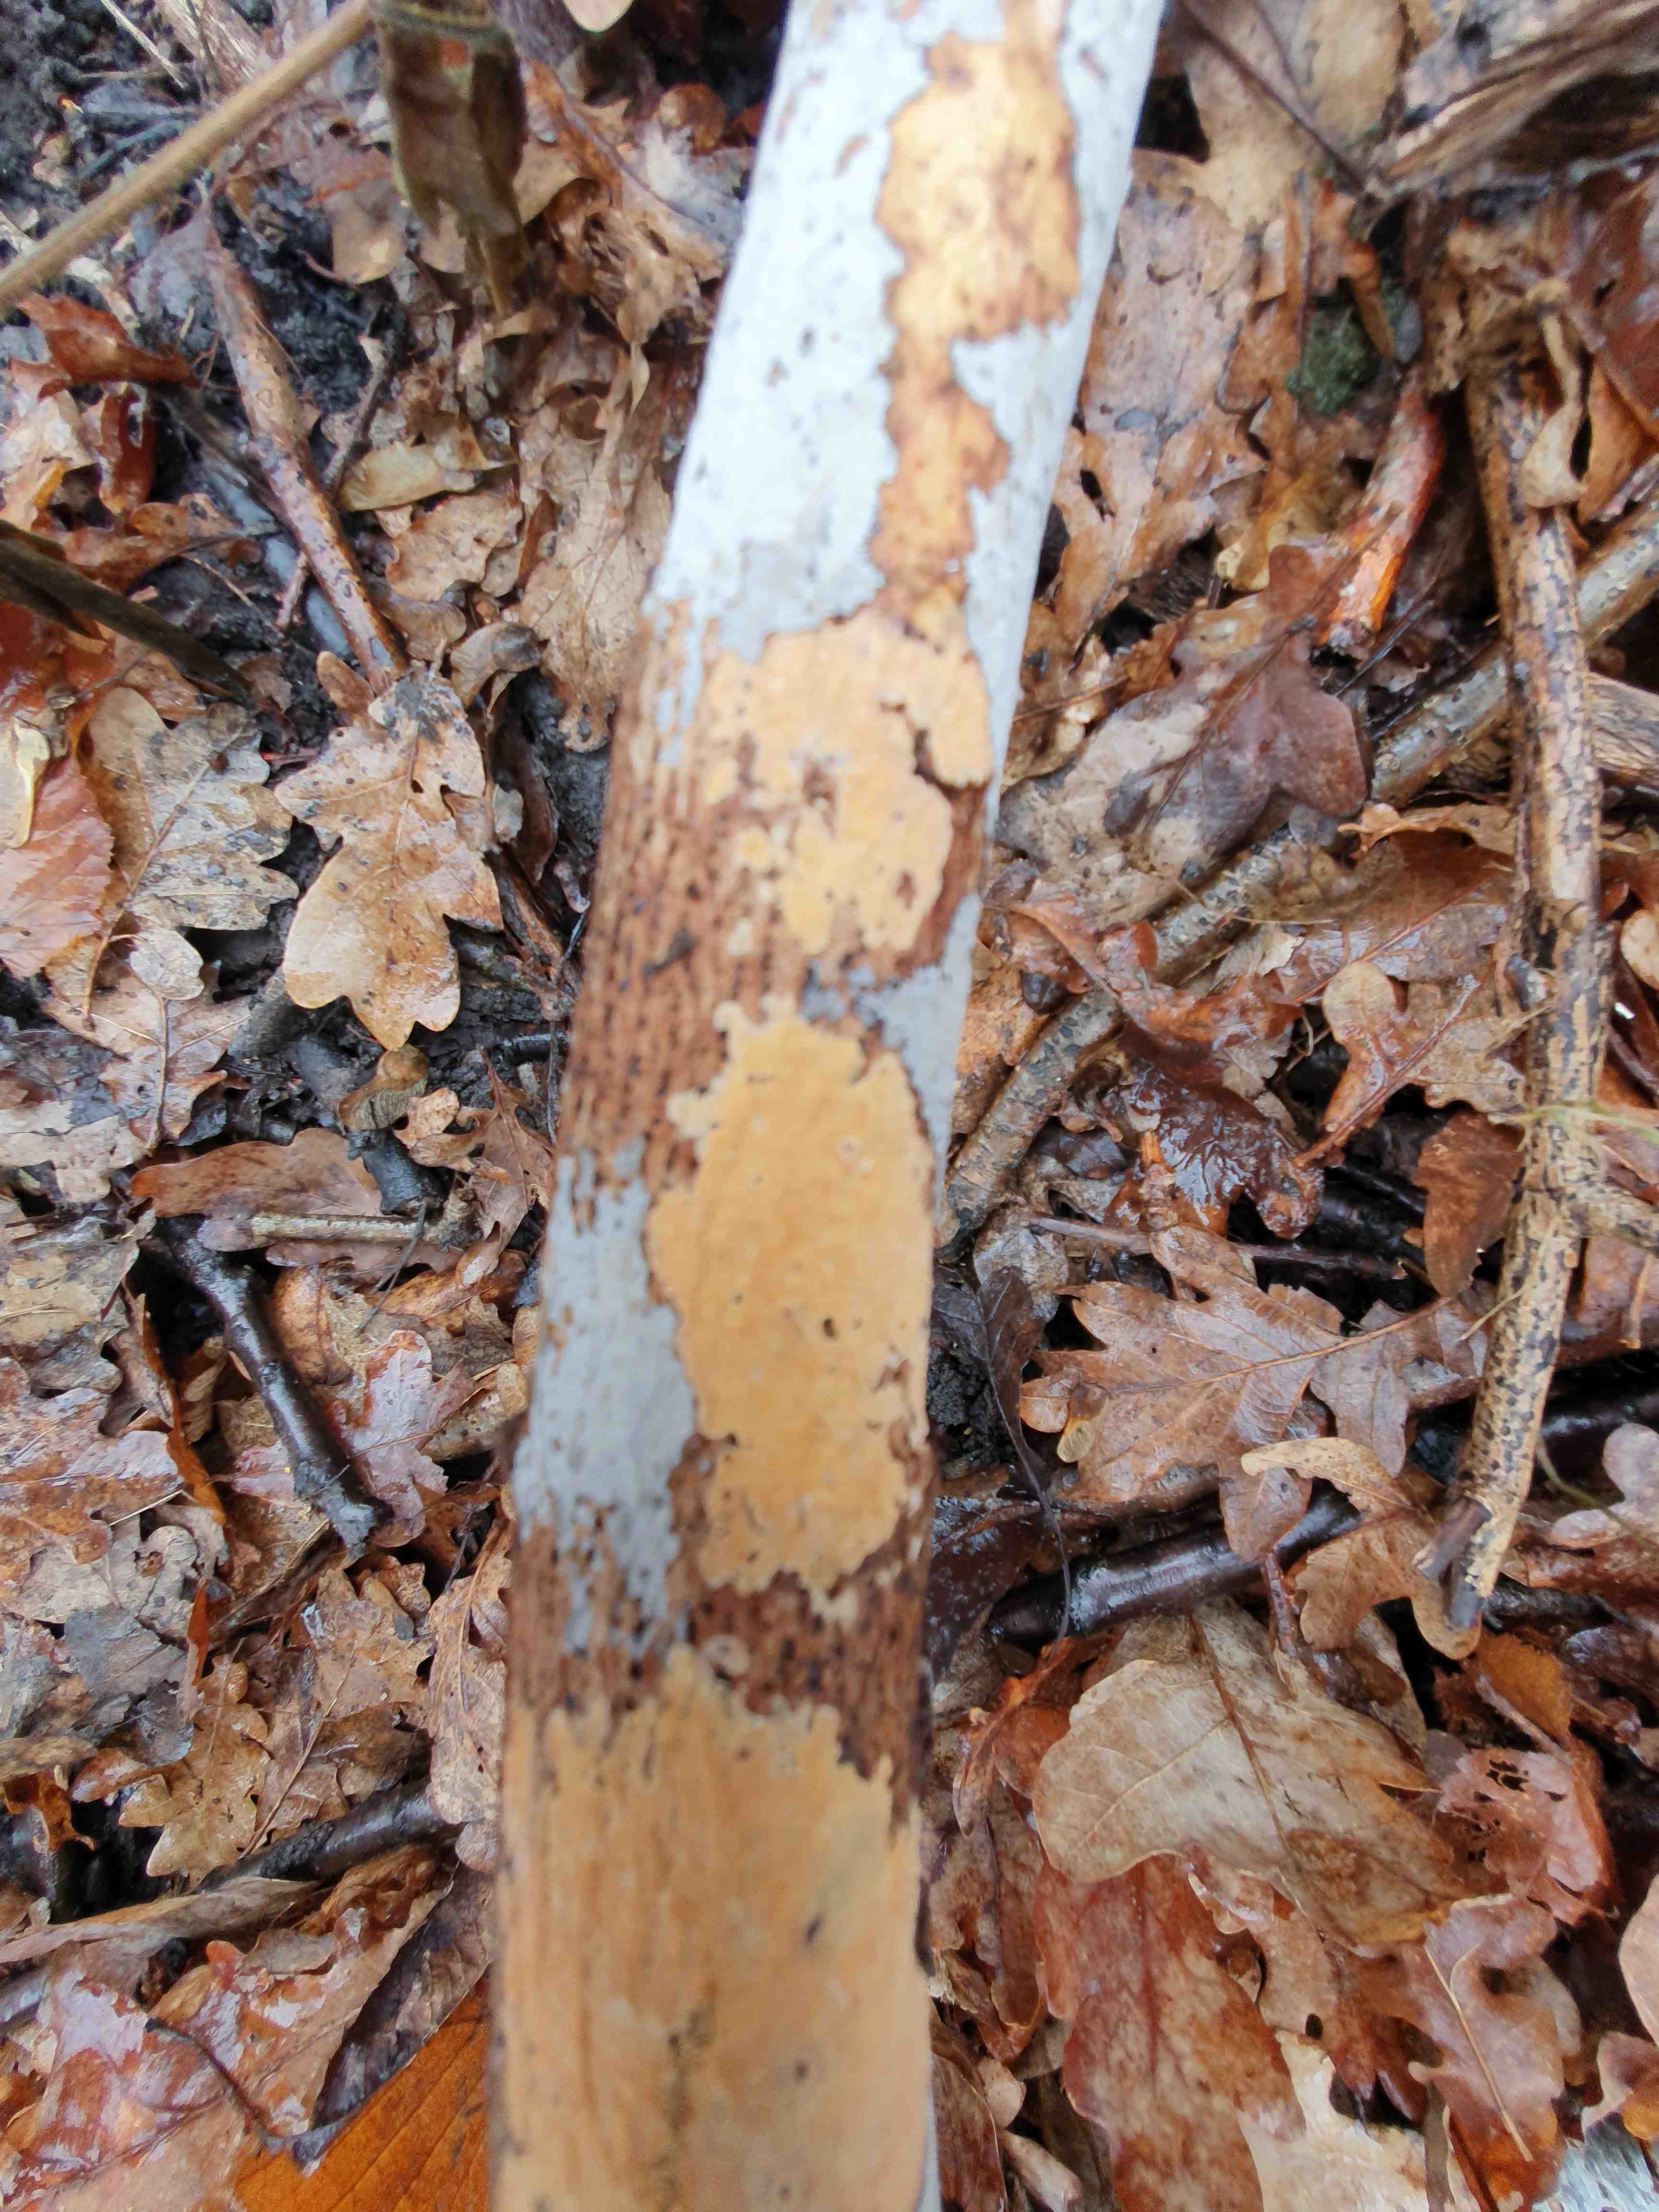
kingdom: Fungi
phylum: Basidiomycota
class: Agaricomycetes
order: Russulales
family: Peniophoraceae
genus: Peniophora
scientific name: Peniophora incarnata
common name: laksefarvet voksskind
